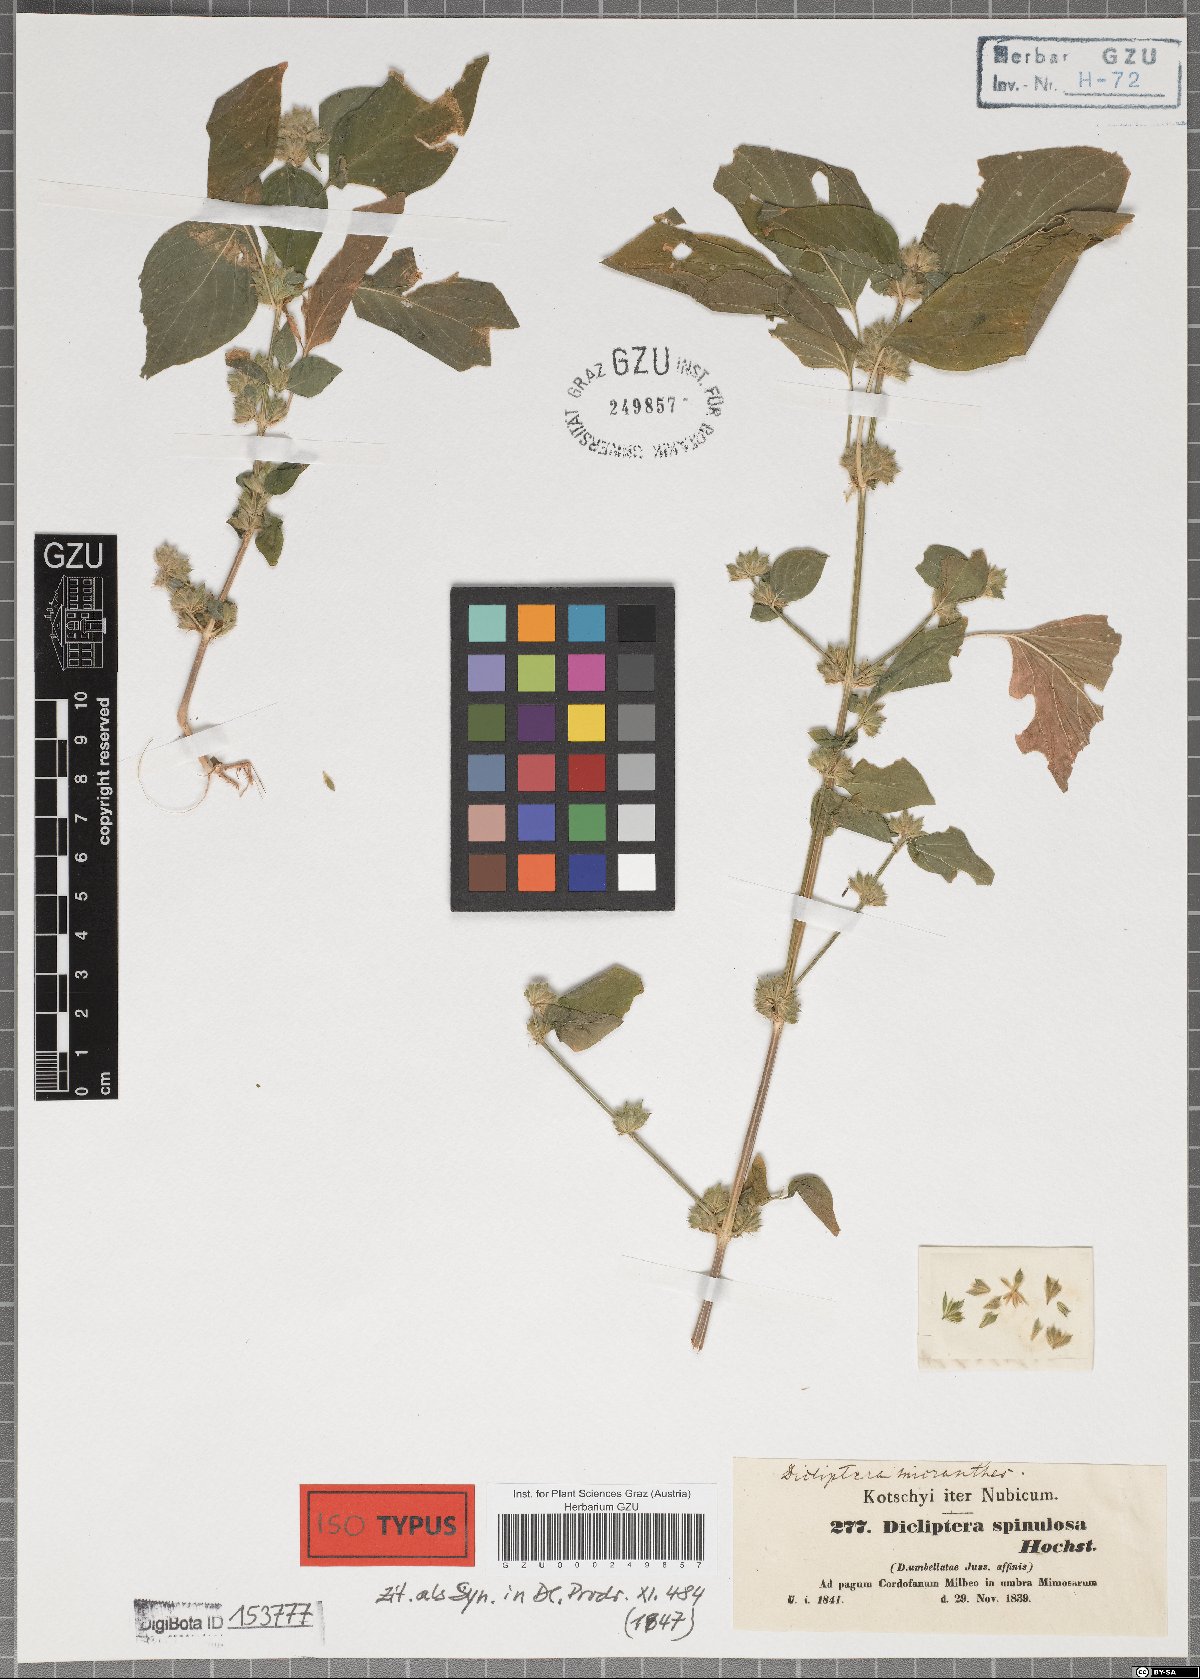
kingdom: Plantae
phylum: Tracheophyta
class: Magnoliopsida
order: Lamiales
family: Acanthaceae
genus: Dicliptera
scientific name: Dicliptera verticillata
